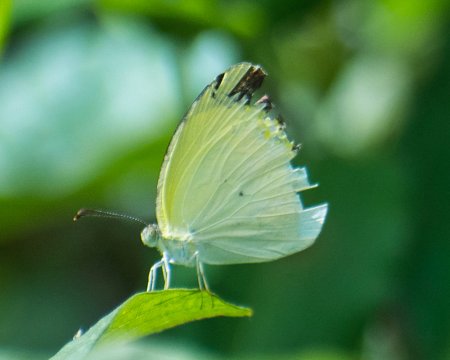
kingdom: Animalia
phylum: Arthropoda
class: Insecta
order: Lepidoptera
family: Pieridae
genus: Pyrisitia
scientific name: Pyrisitia venusta
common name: Pale Yellow
